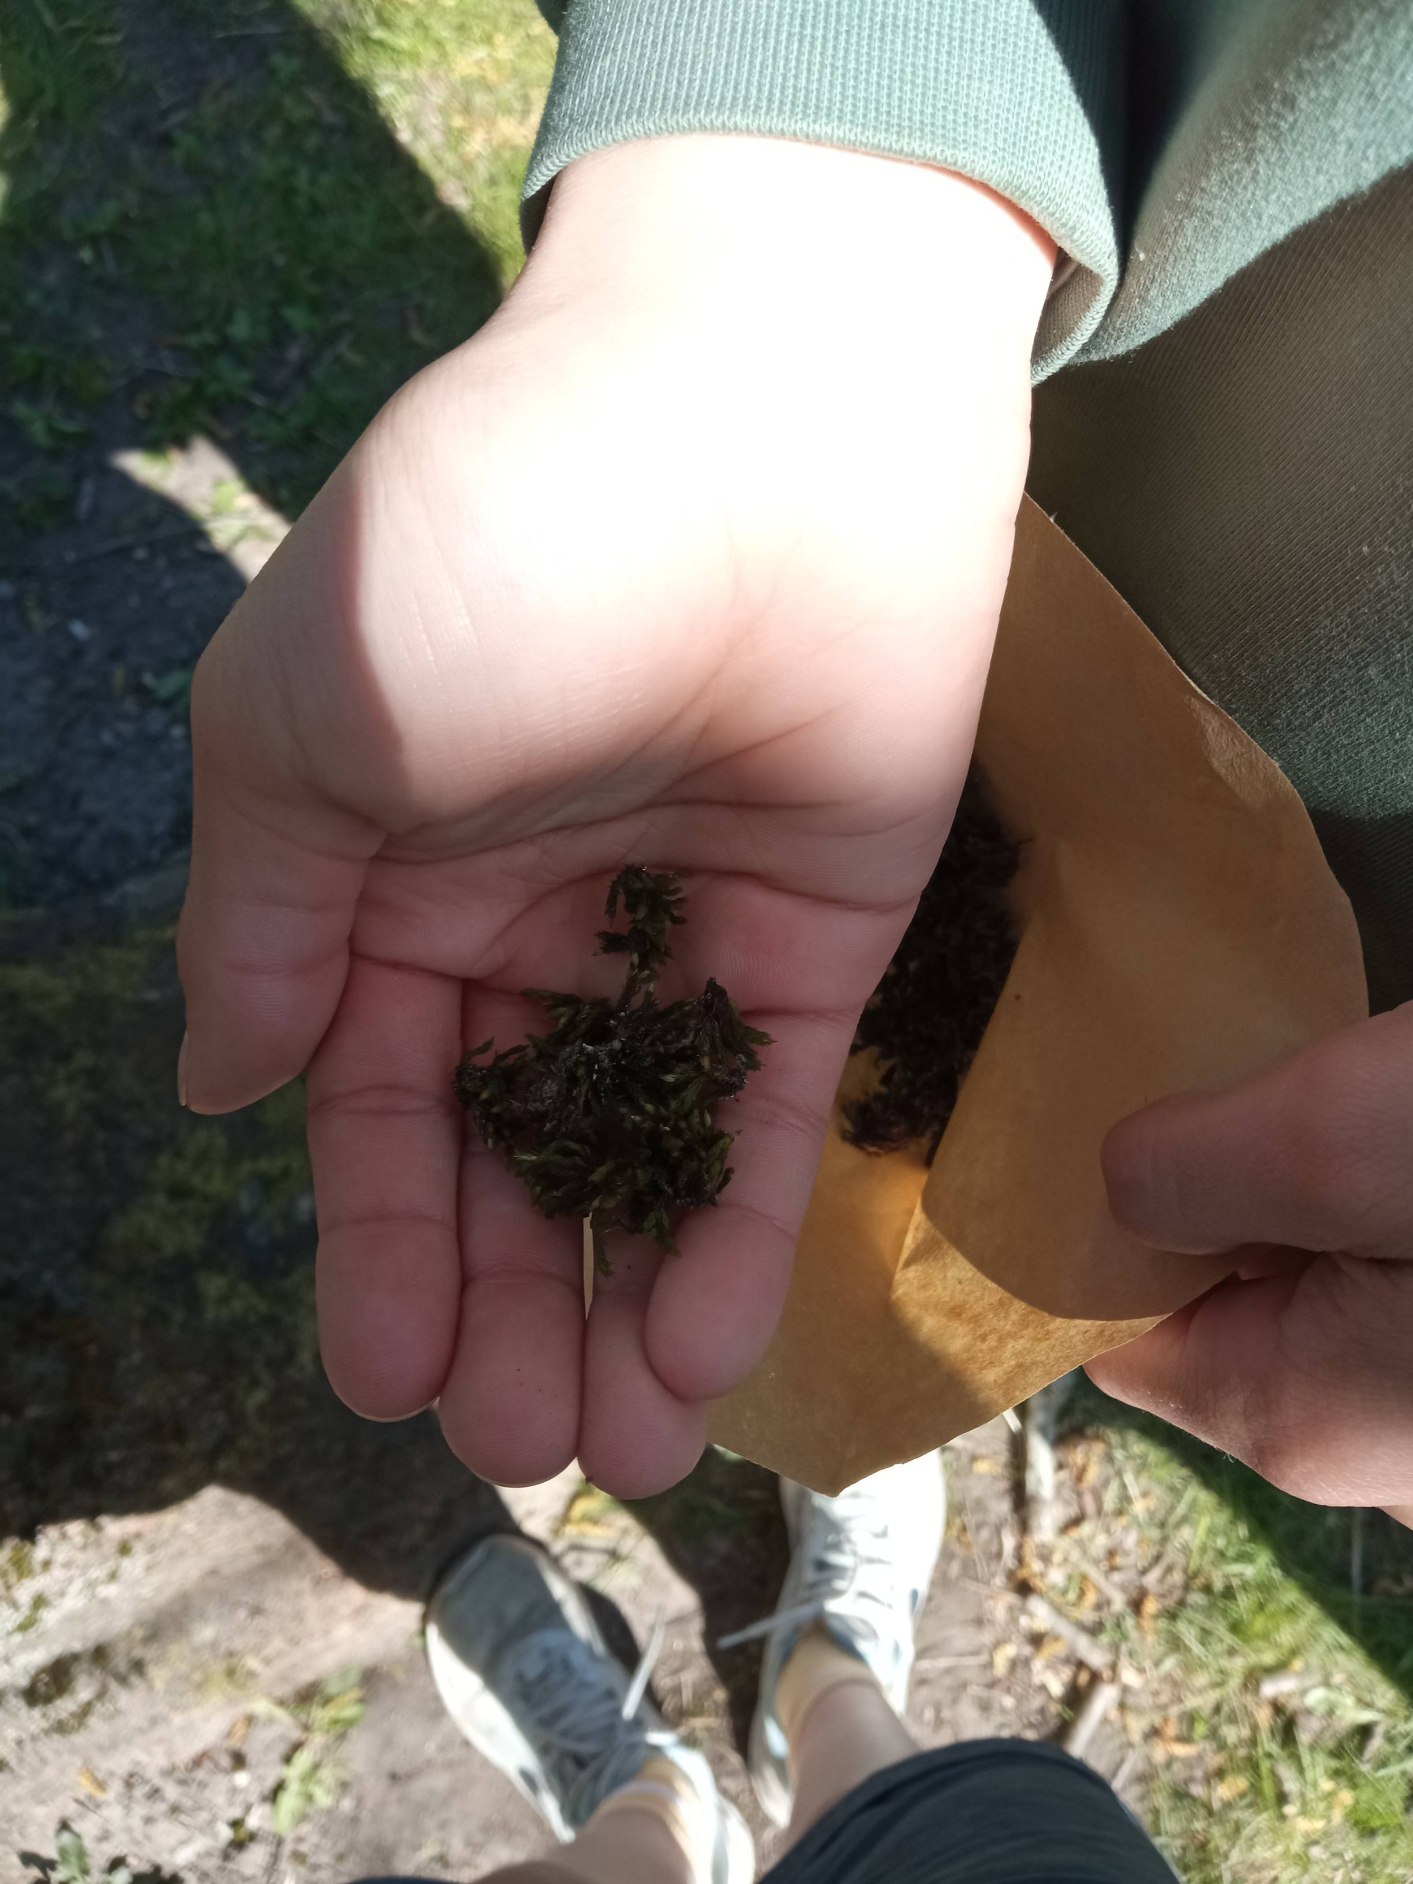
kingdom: Plantae
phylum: Bryophyta
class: Bryopsida
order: Orthotrichales
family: Orthotrichaceae
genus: Lewinskya
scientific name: Lewinskya affinis
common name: Almindelig furehætte
